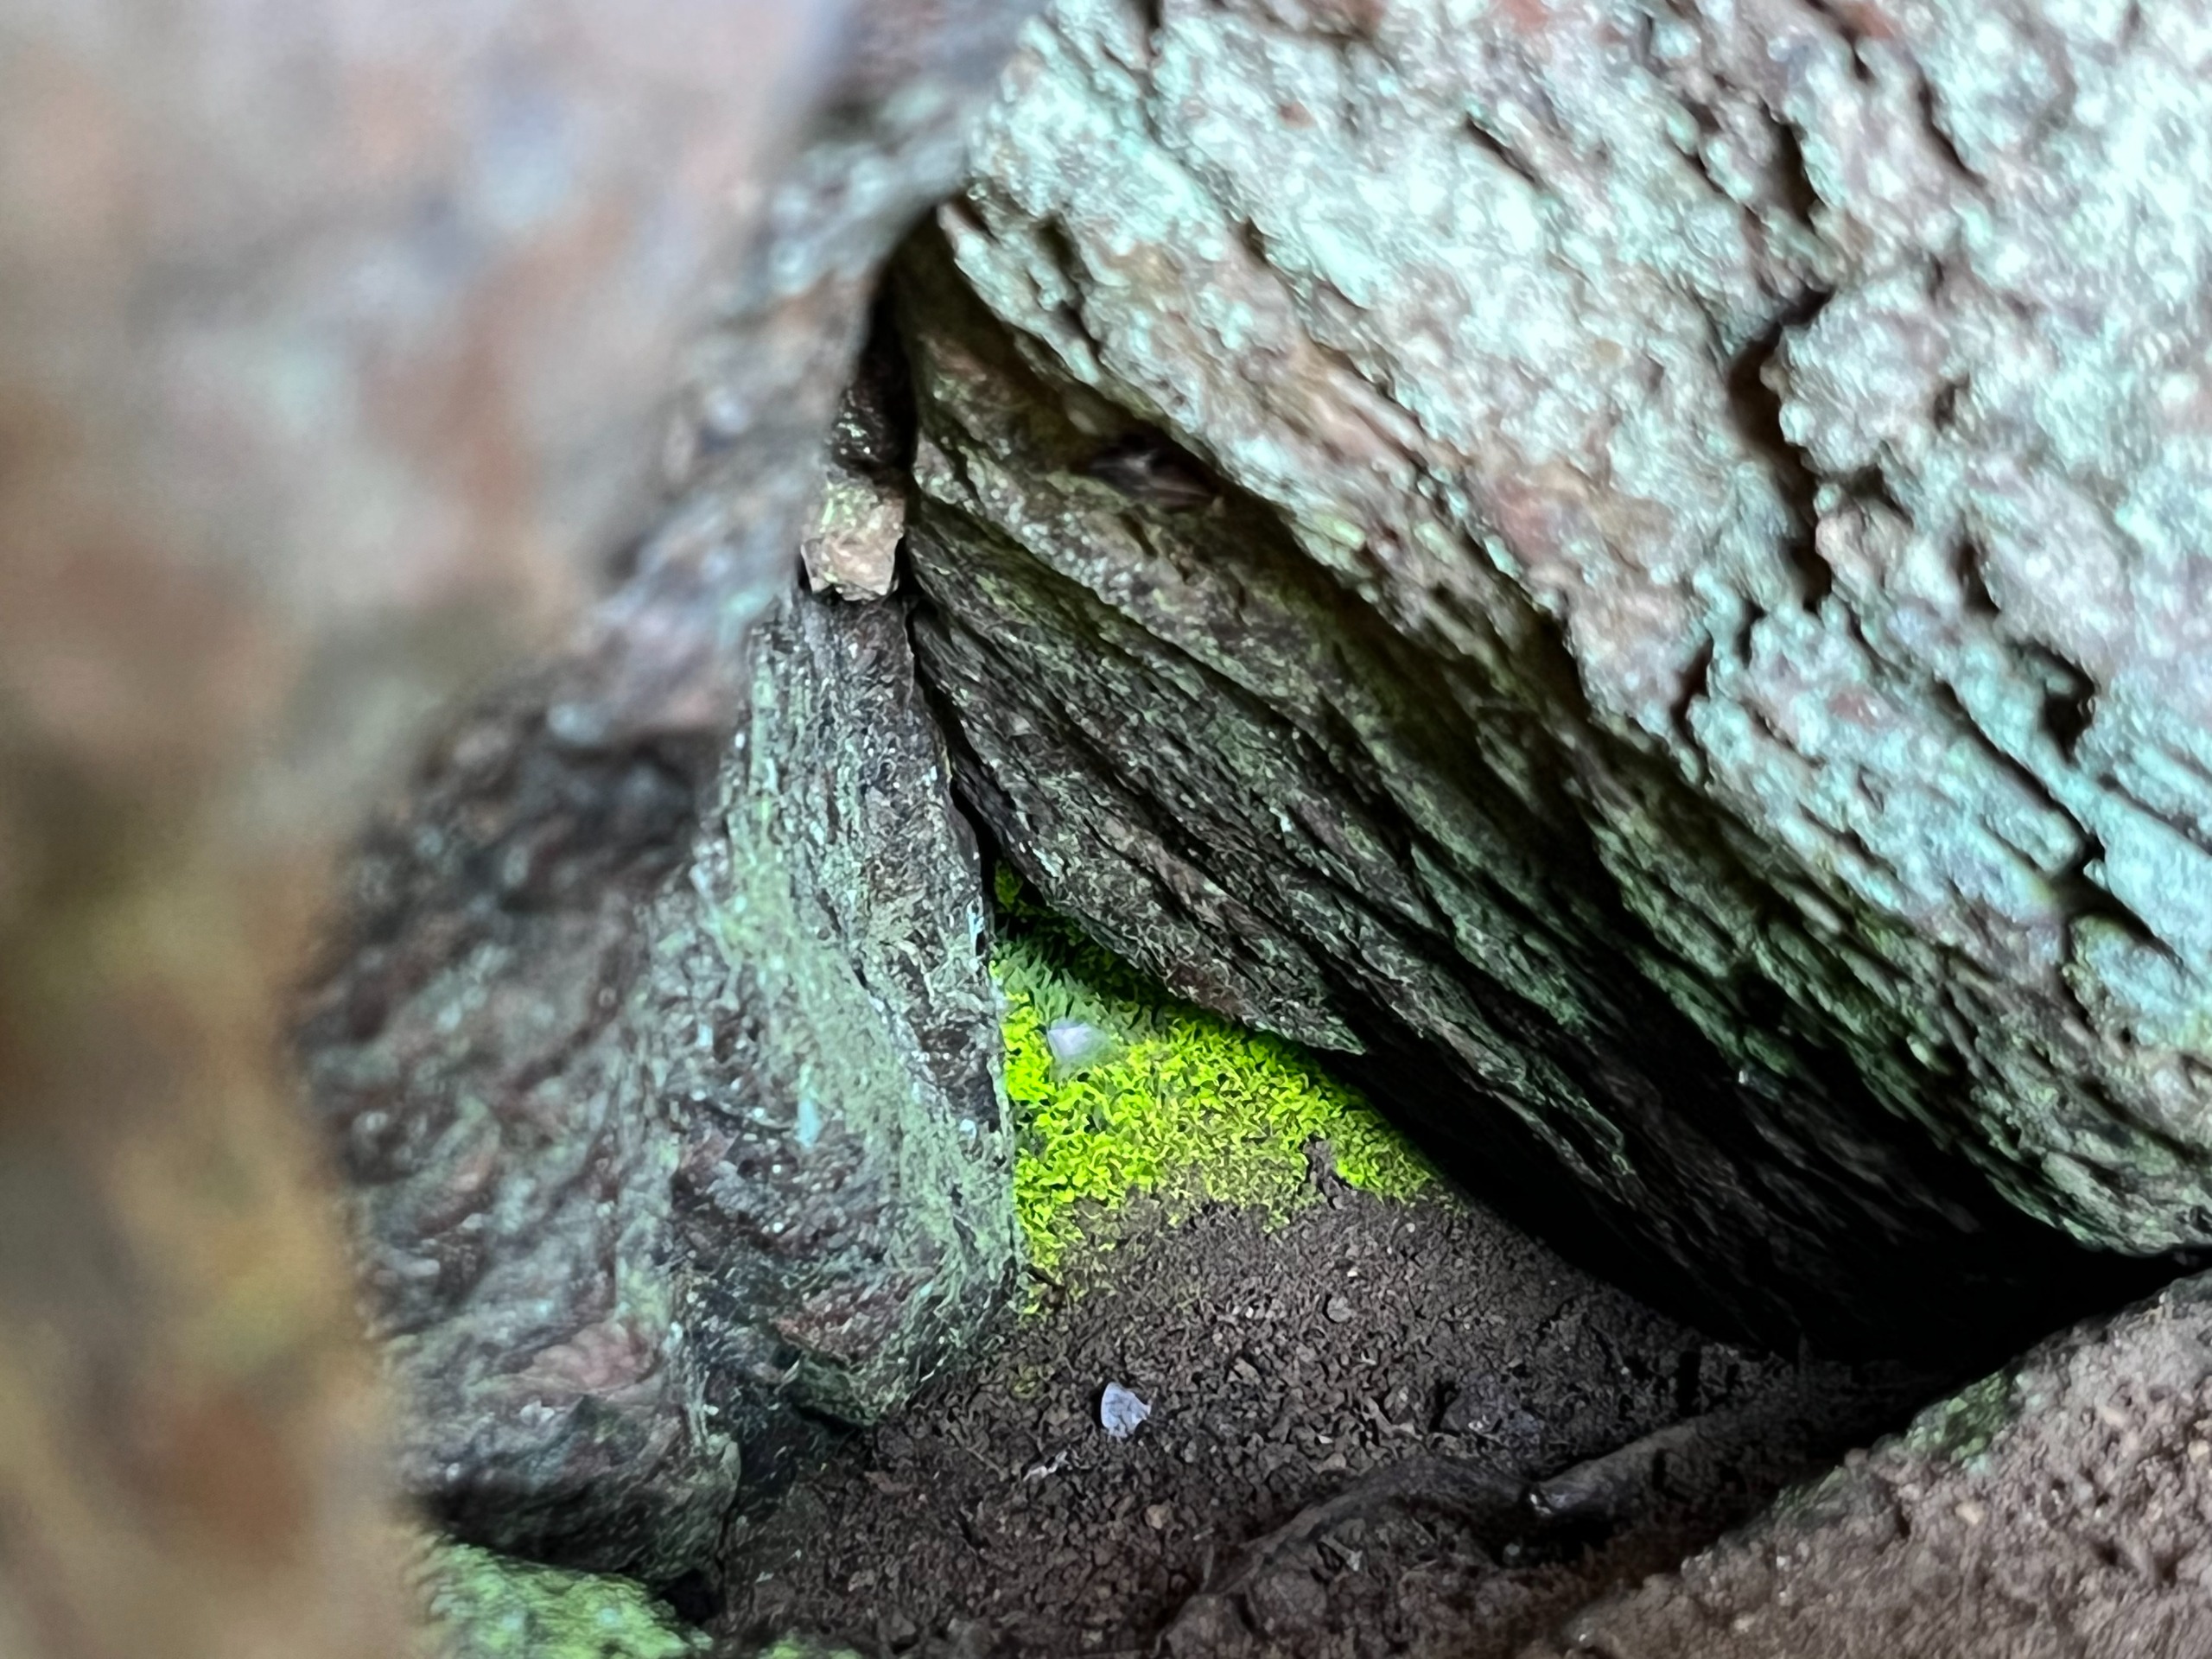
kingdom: Plantae
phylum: Bryophyta
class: Bryopsida
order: Dicranales
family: Schistostegaceae
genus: Schistostega
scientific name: Schistostega pennata
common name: Almindelig lysmos
